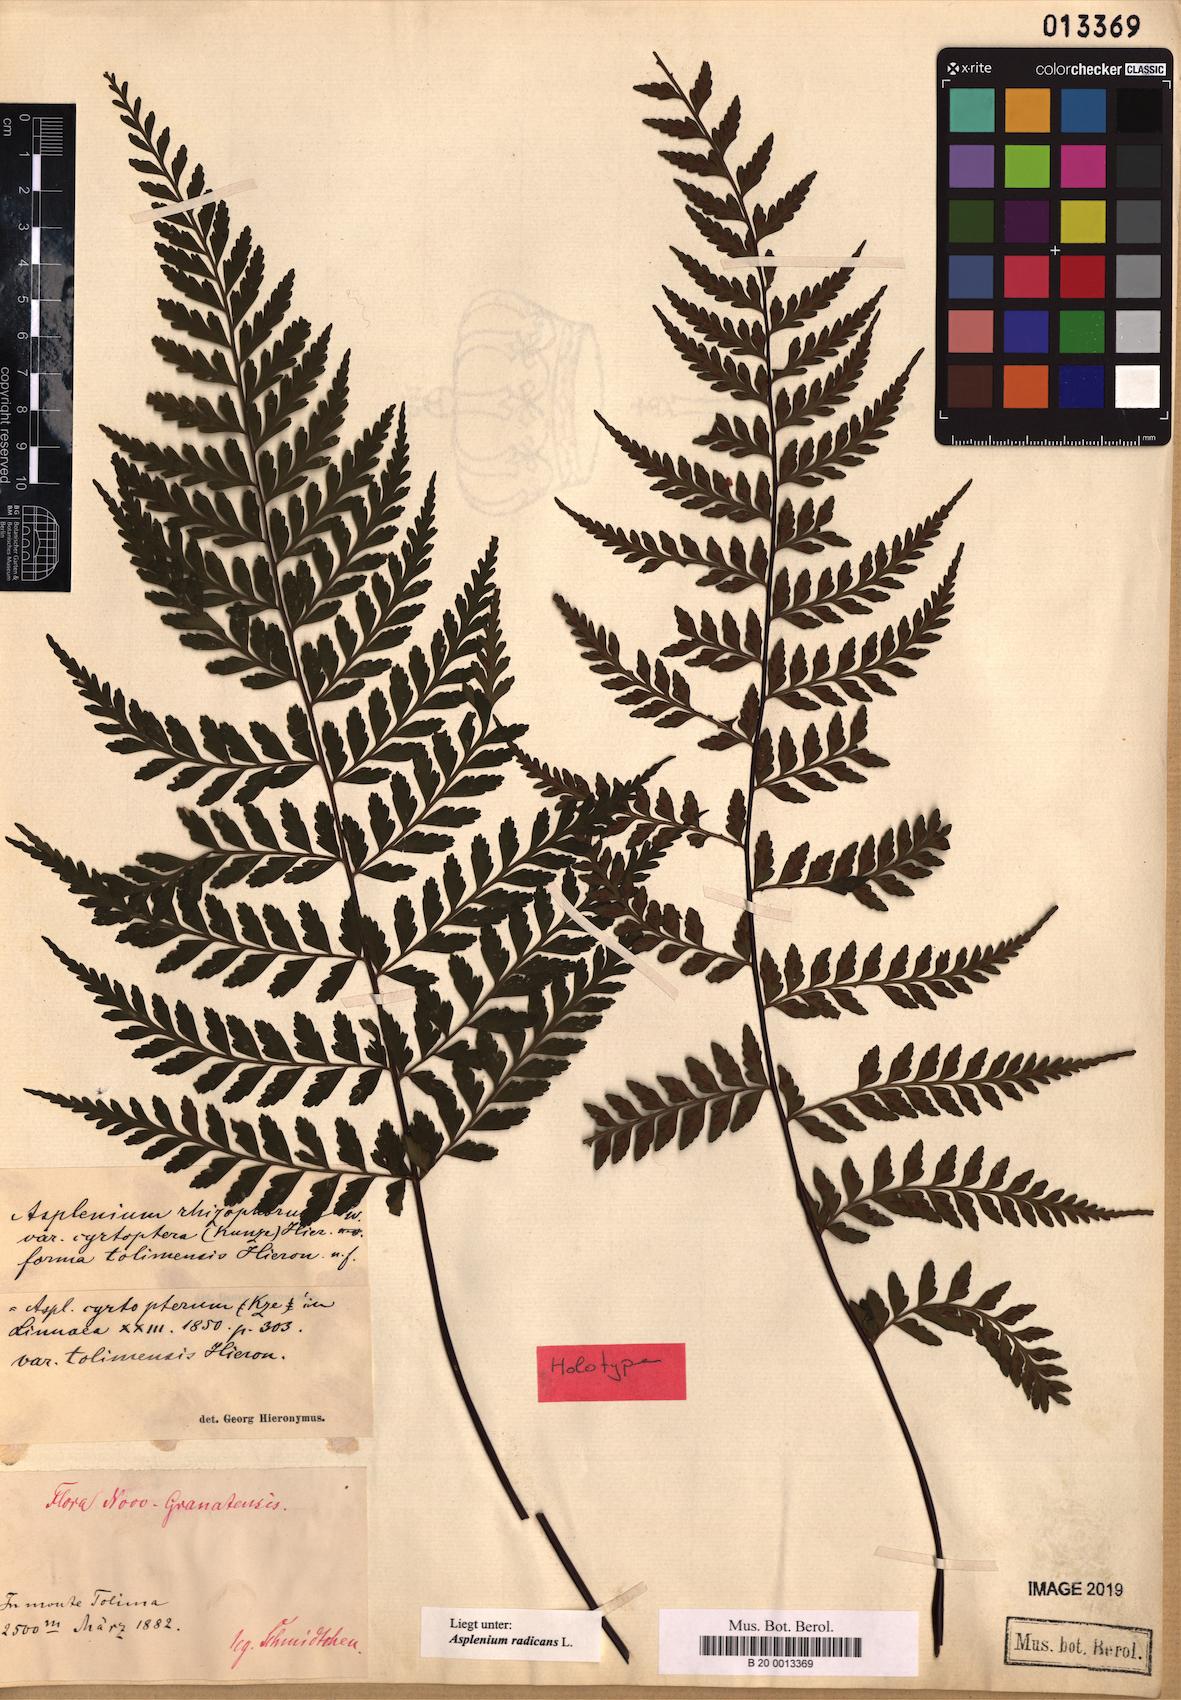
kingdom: Plantae
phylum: Tracheophyta
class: Polypodiopsida
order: Polypodiales
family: Aspleniaceae
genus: Asplenium
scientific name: Asplenium radicans
